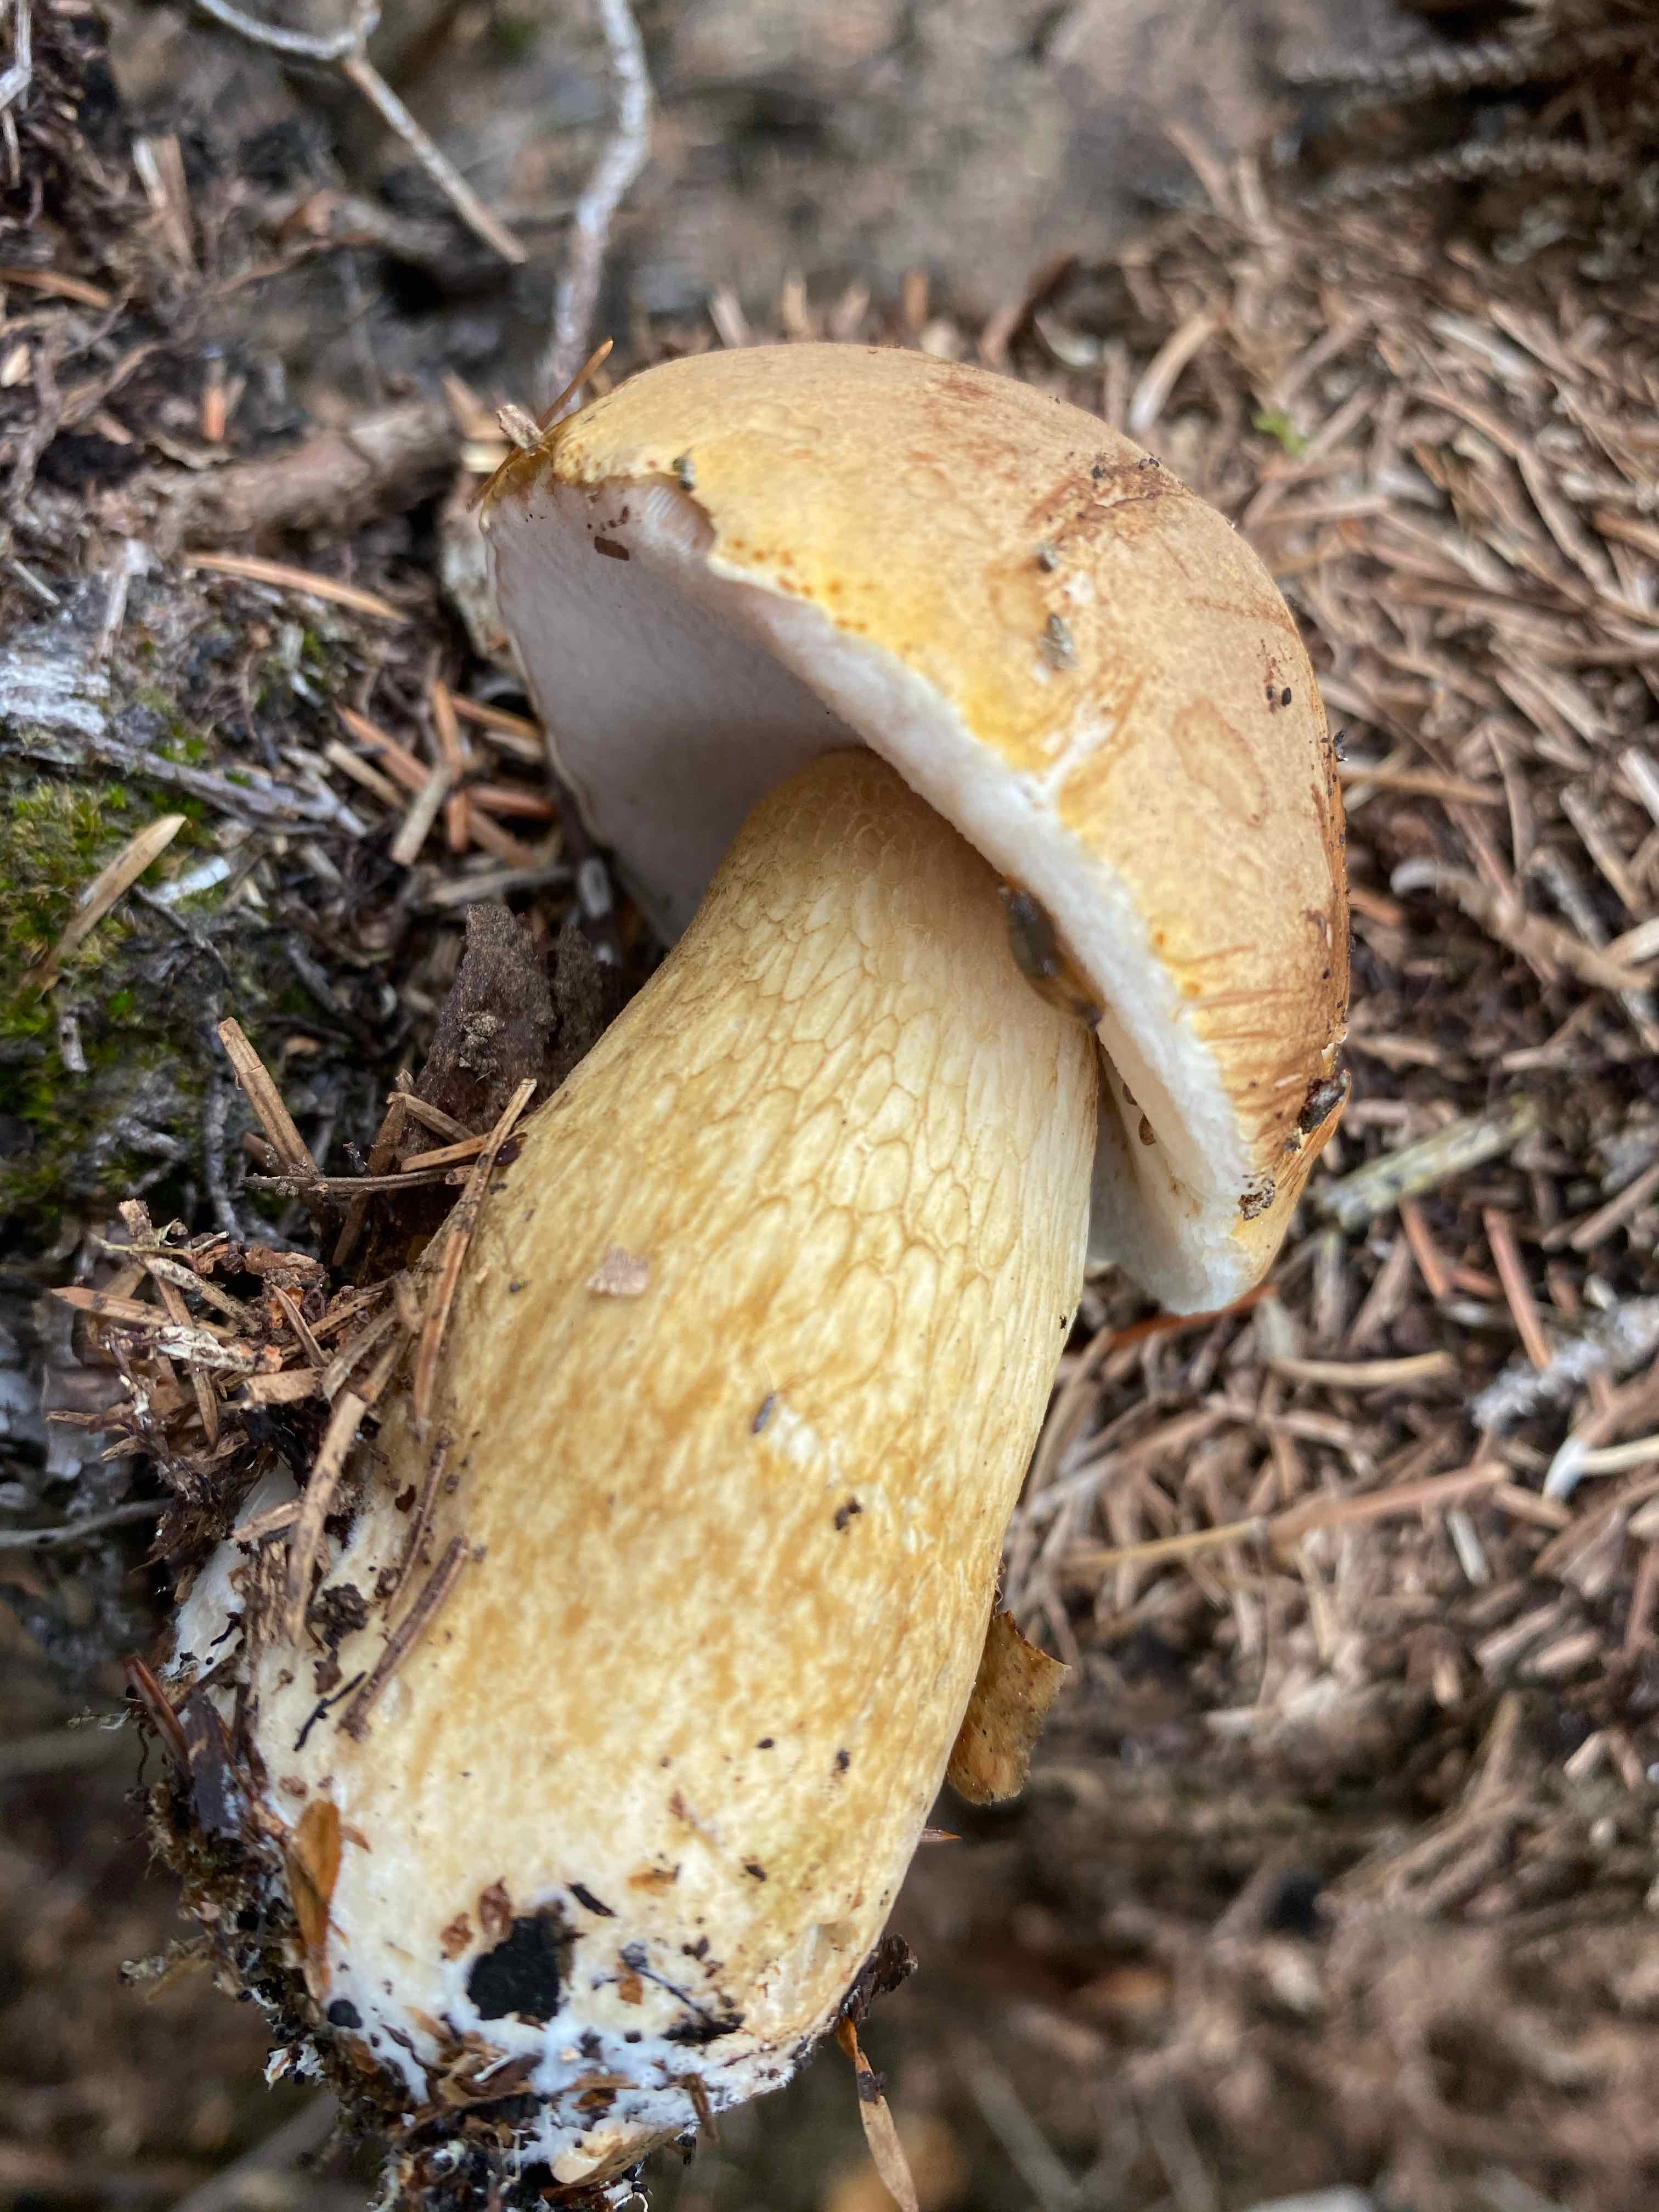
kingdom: Fungi
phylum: Basidiomycota
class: Agaricomycetes
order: Boletales
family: Boletaceae
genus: Tylopilus
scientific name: Tylopilus felleus
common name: galderørhat
